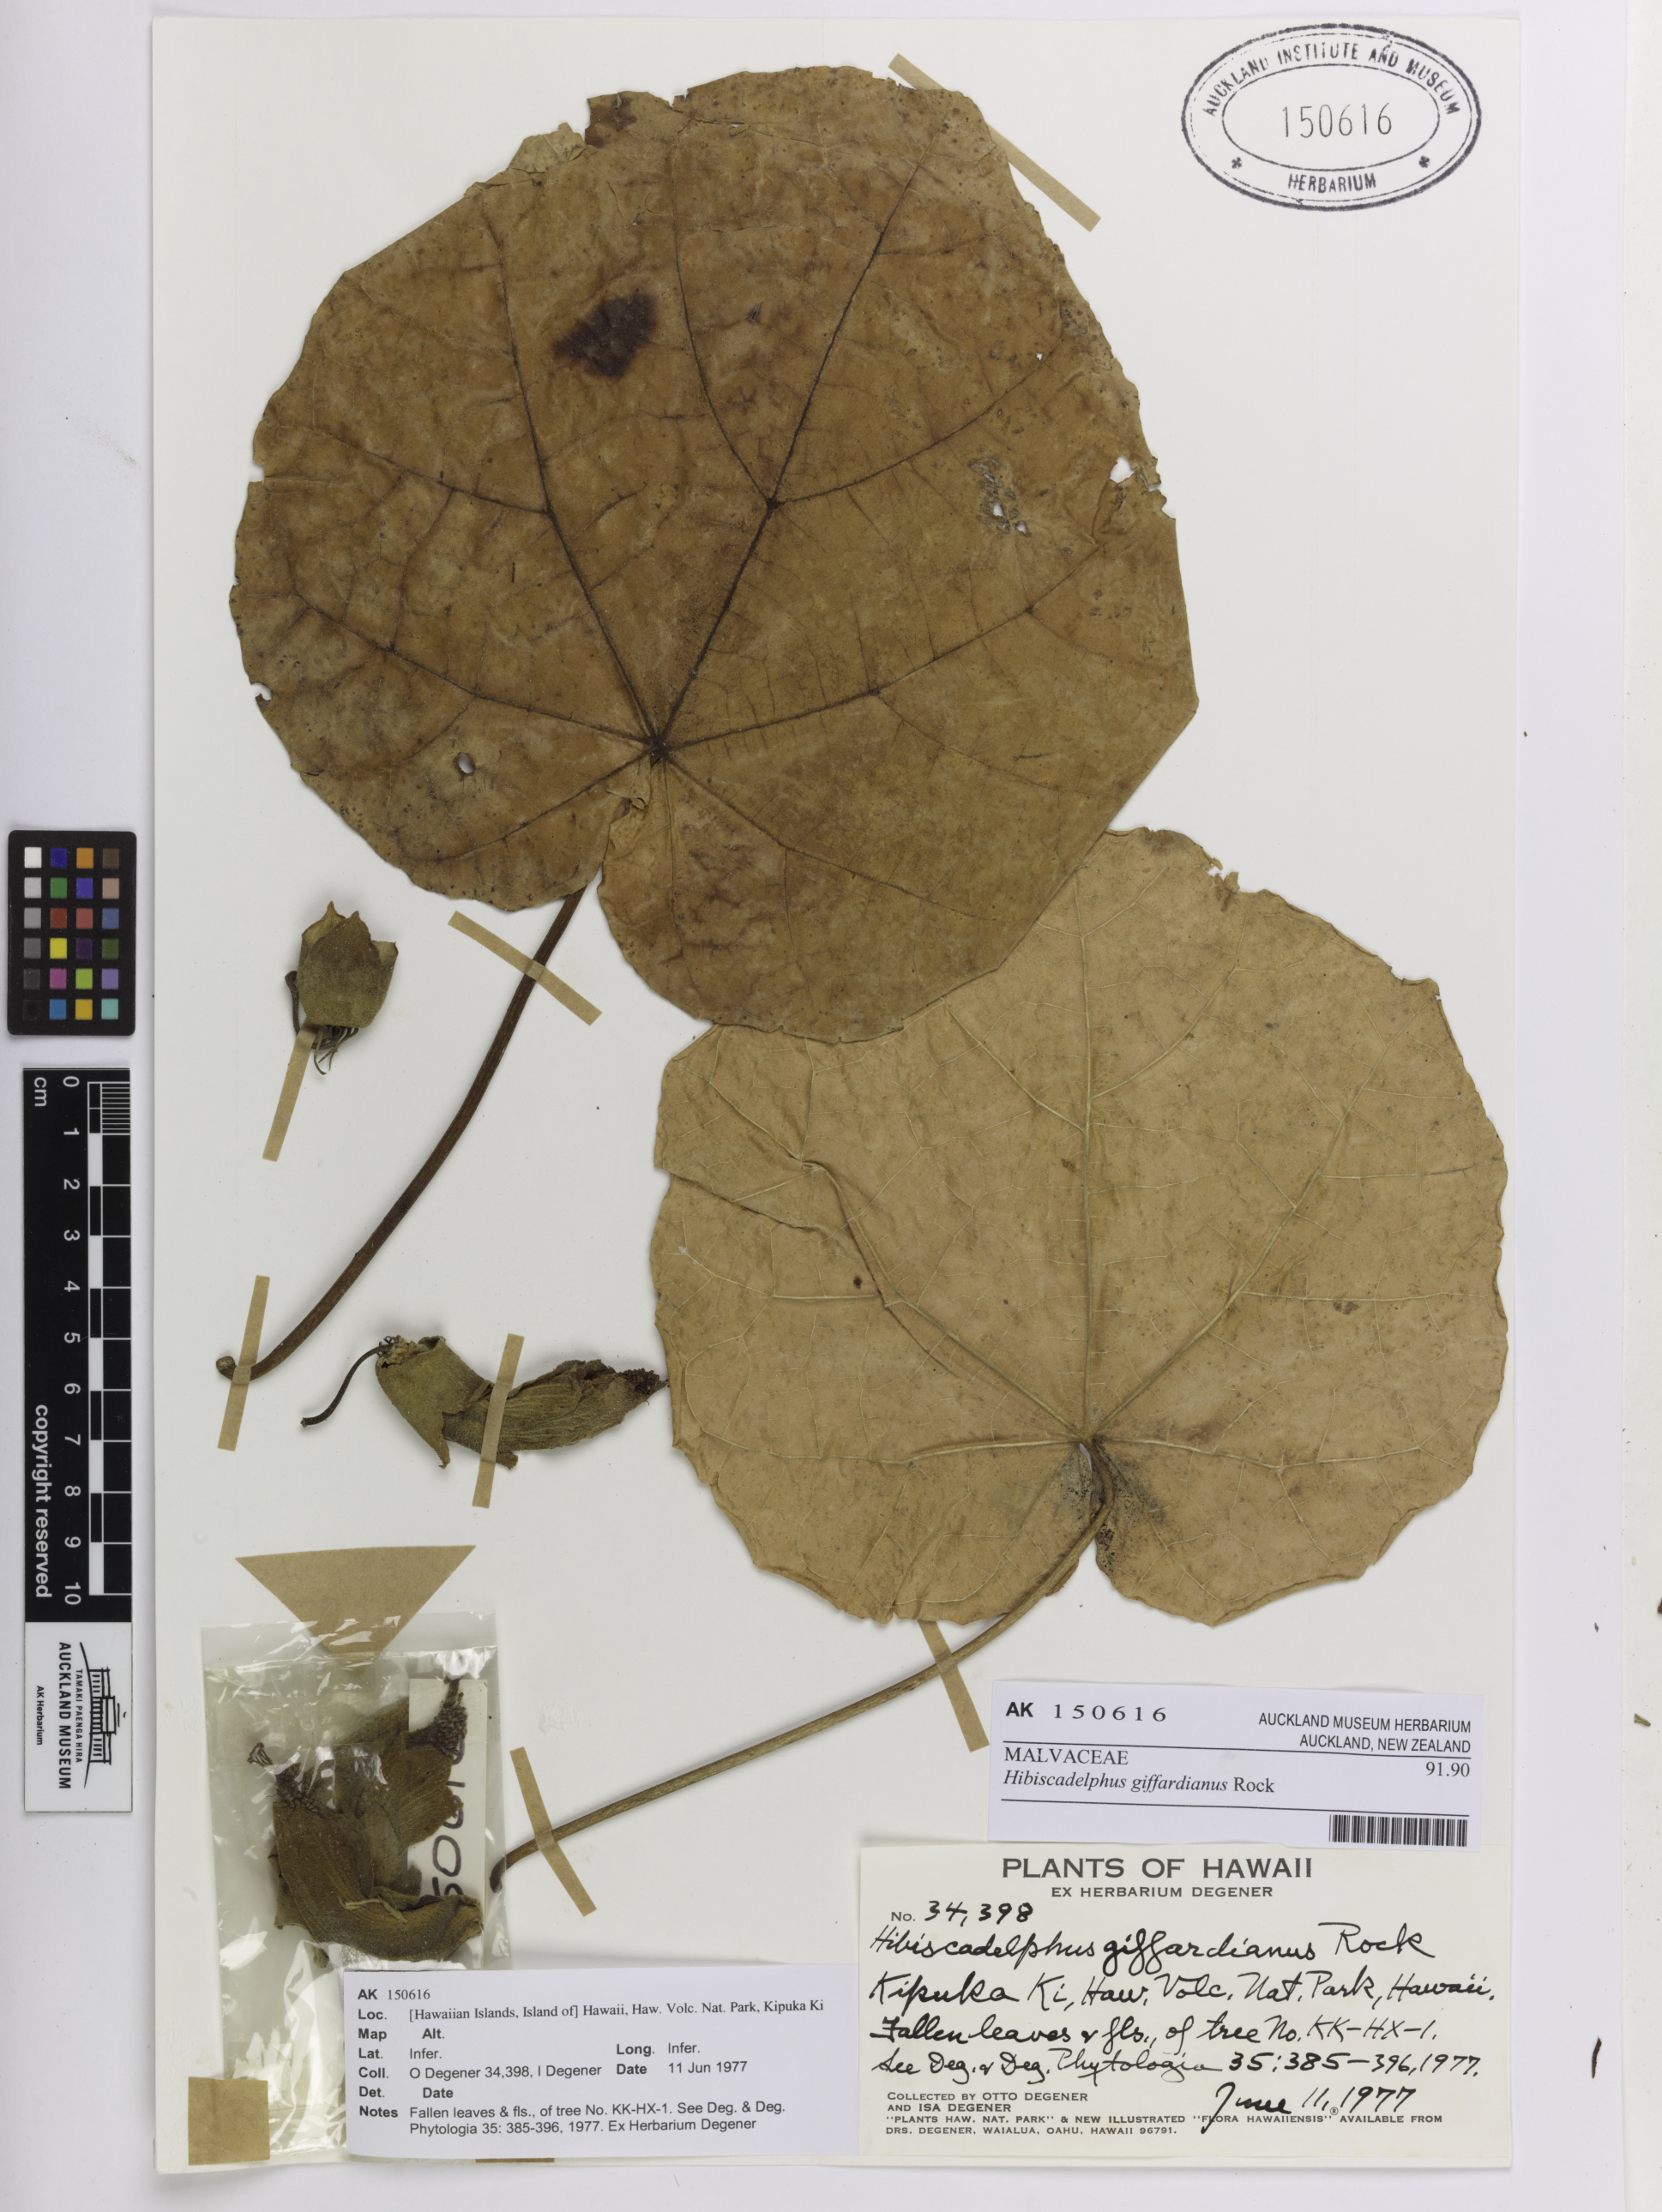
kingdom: Plantae
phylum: Tracheophyta
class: Magnoliopsida
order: Malvales
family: Malvaceae
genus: Hibiscadelphus
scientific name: Hibiscadelphus giffardianus
